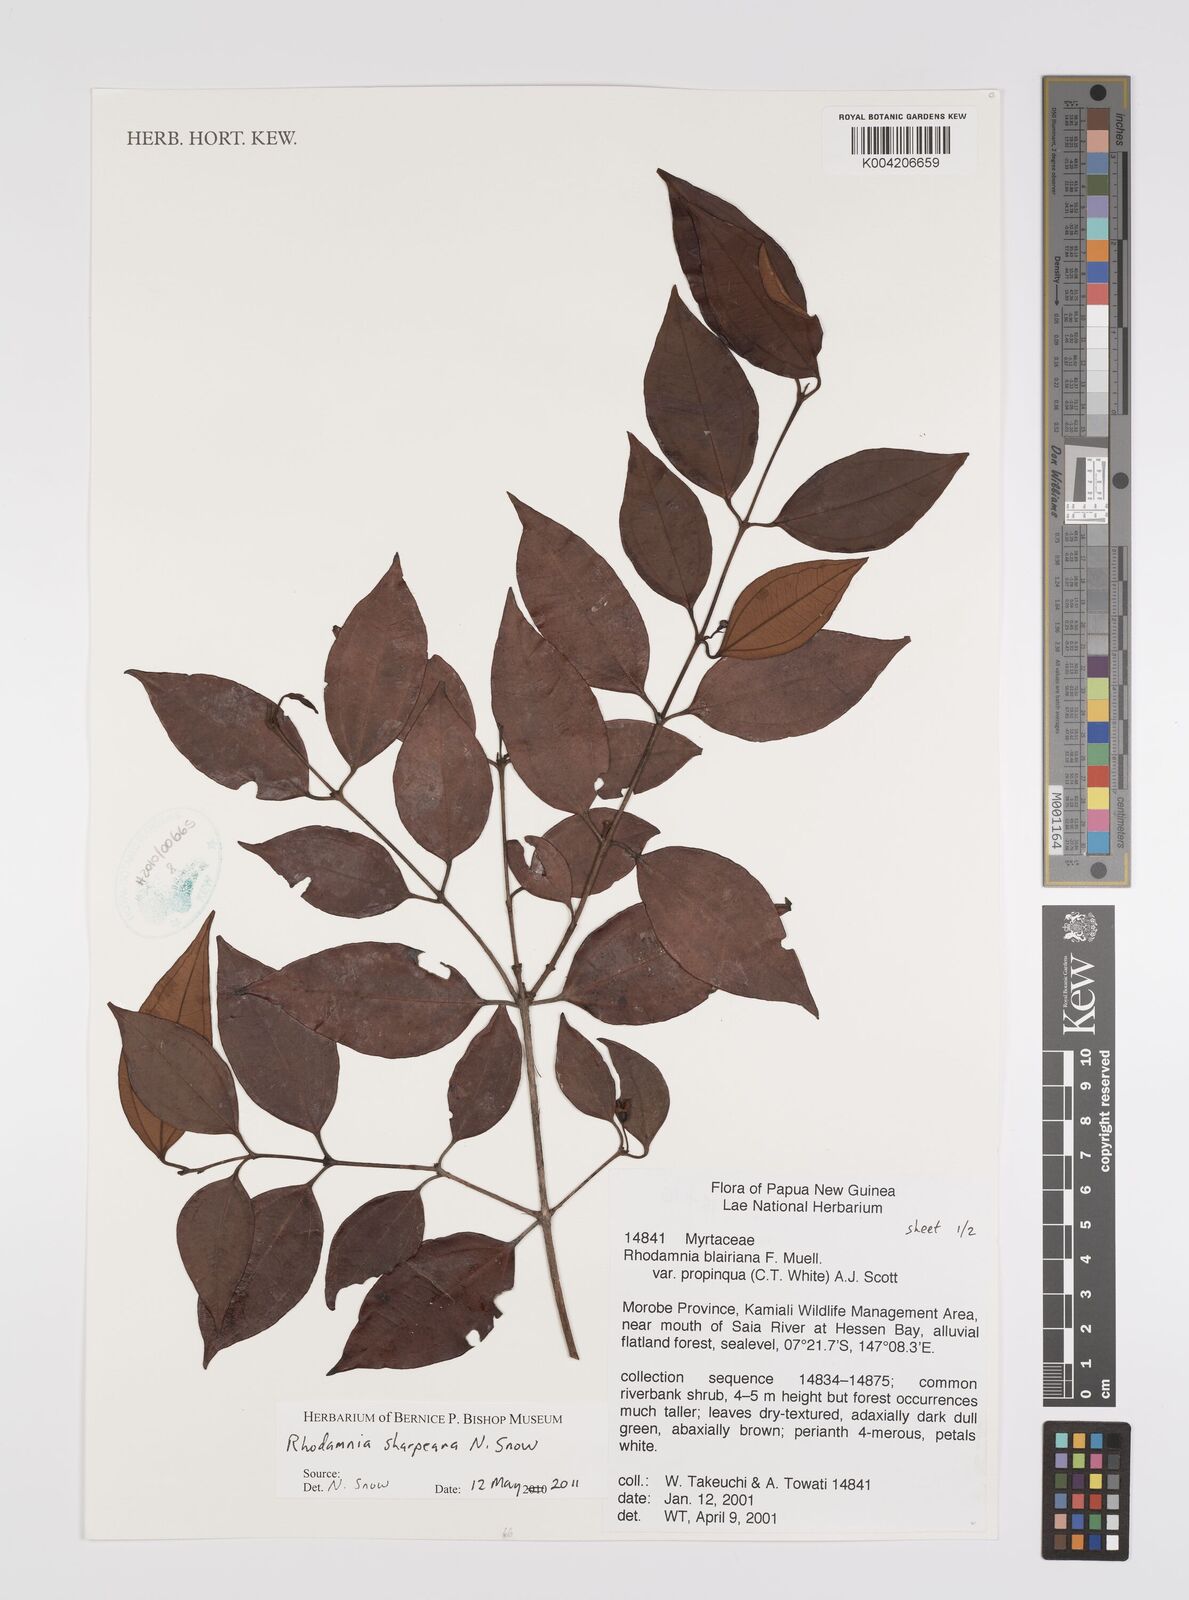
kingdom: Plantae
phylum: Tracheophyta
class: Magnoliopsida
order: Myrtales
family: Myrtaceae
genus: Rhodamnia
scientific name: Rhodamnia sharpeana
